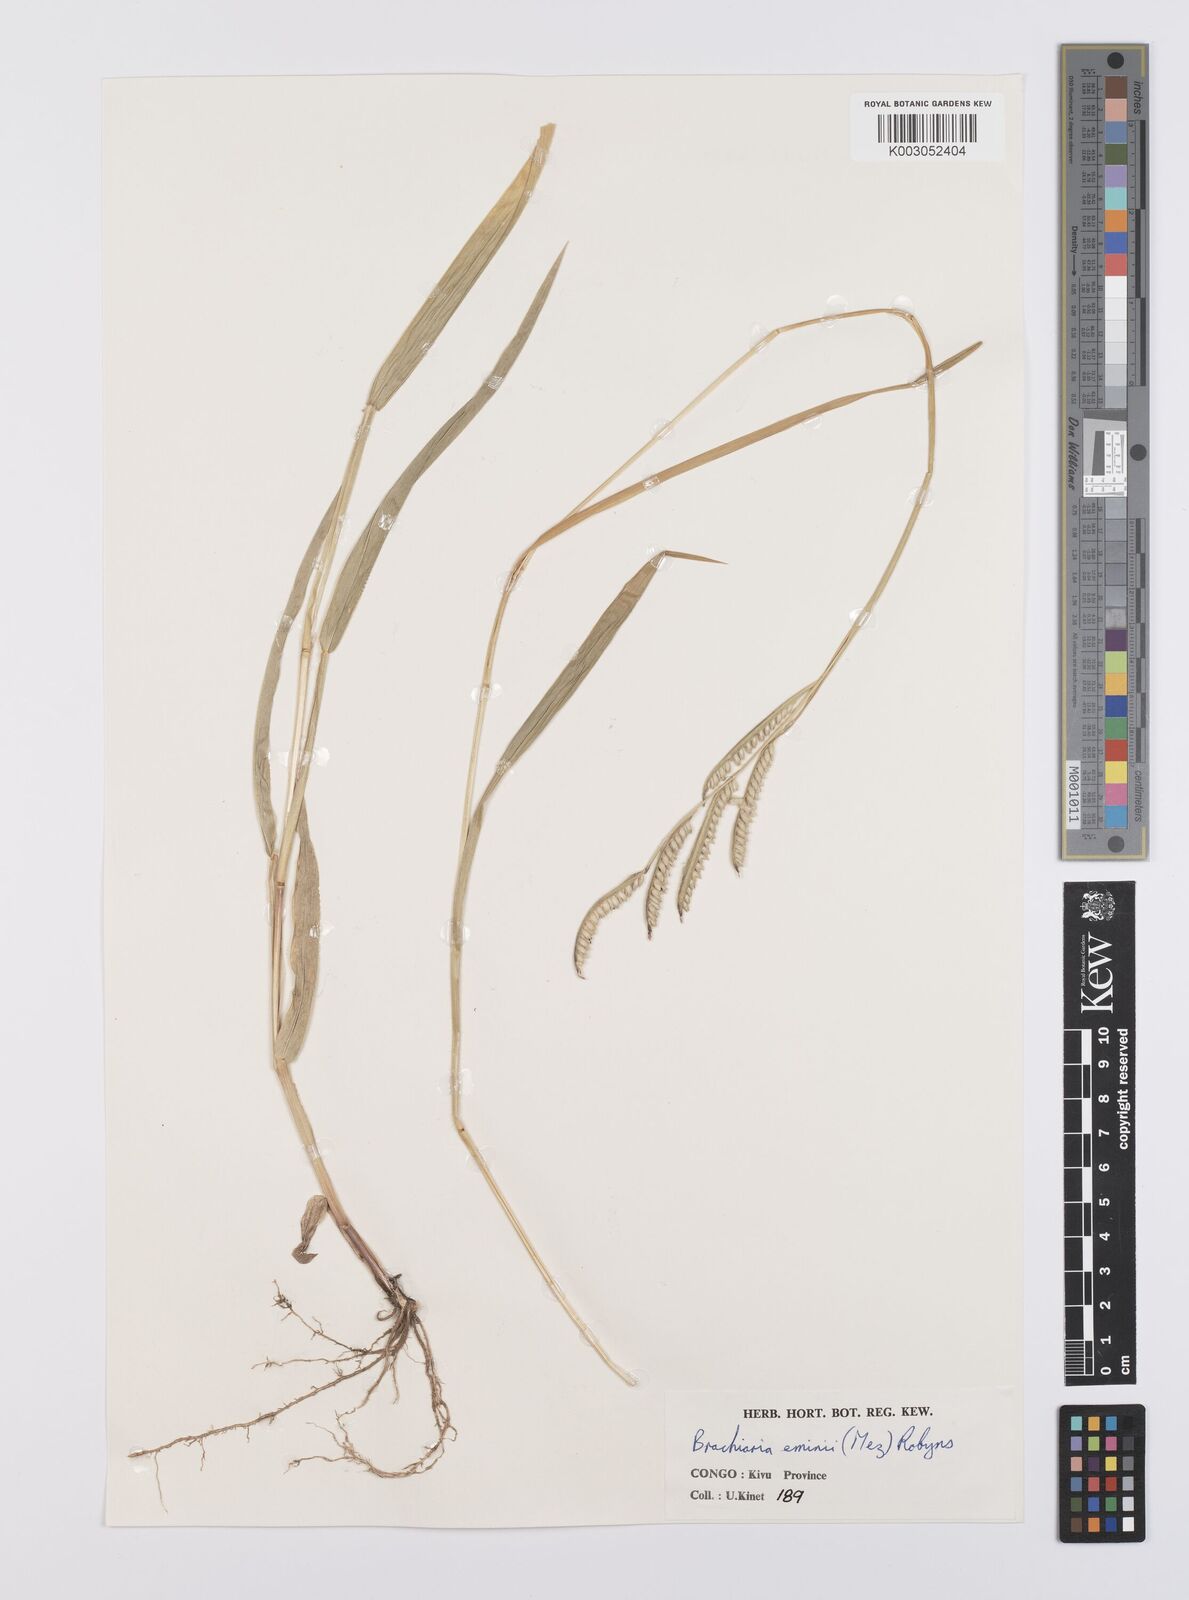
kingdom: Plantae
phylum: Tracheophyta
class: Liliopsida
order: Poales
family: Poaceae
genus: Urochloa
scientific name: Urochloa eminii
